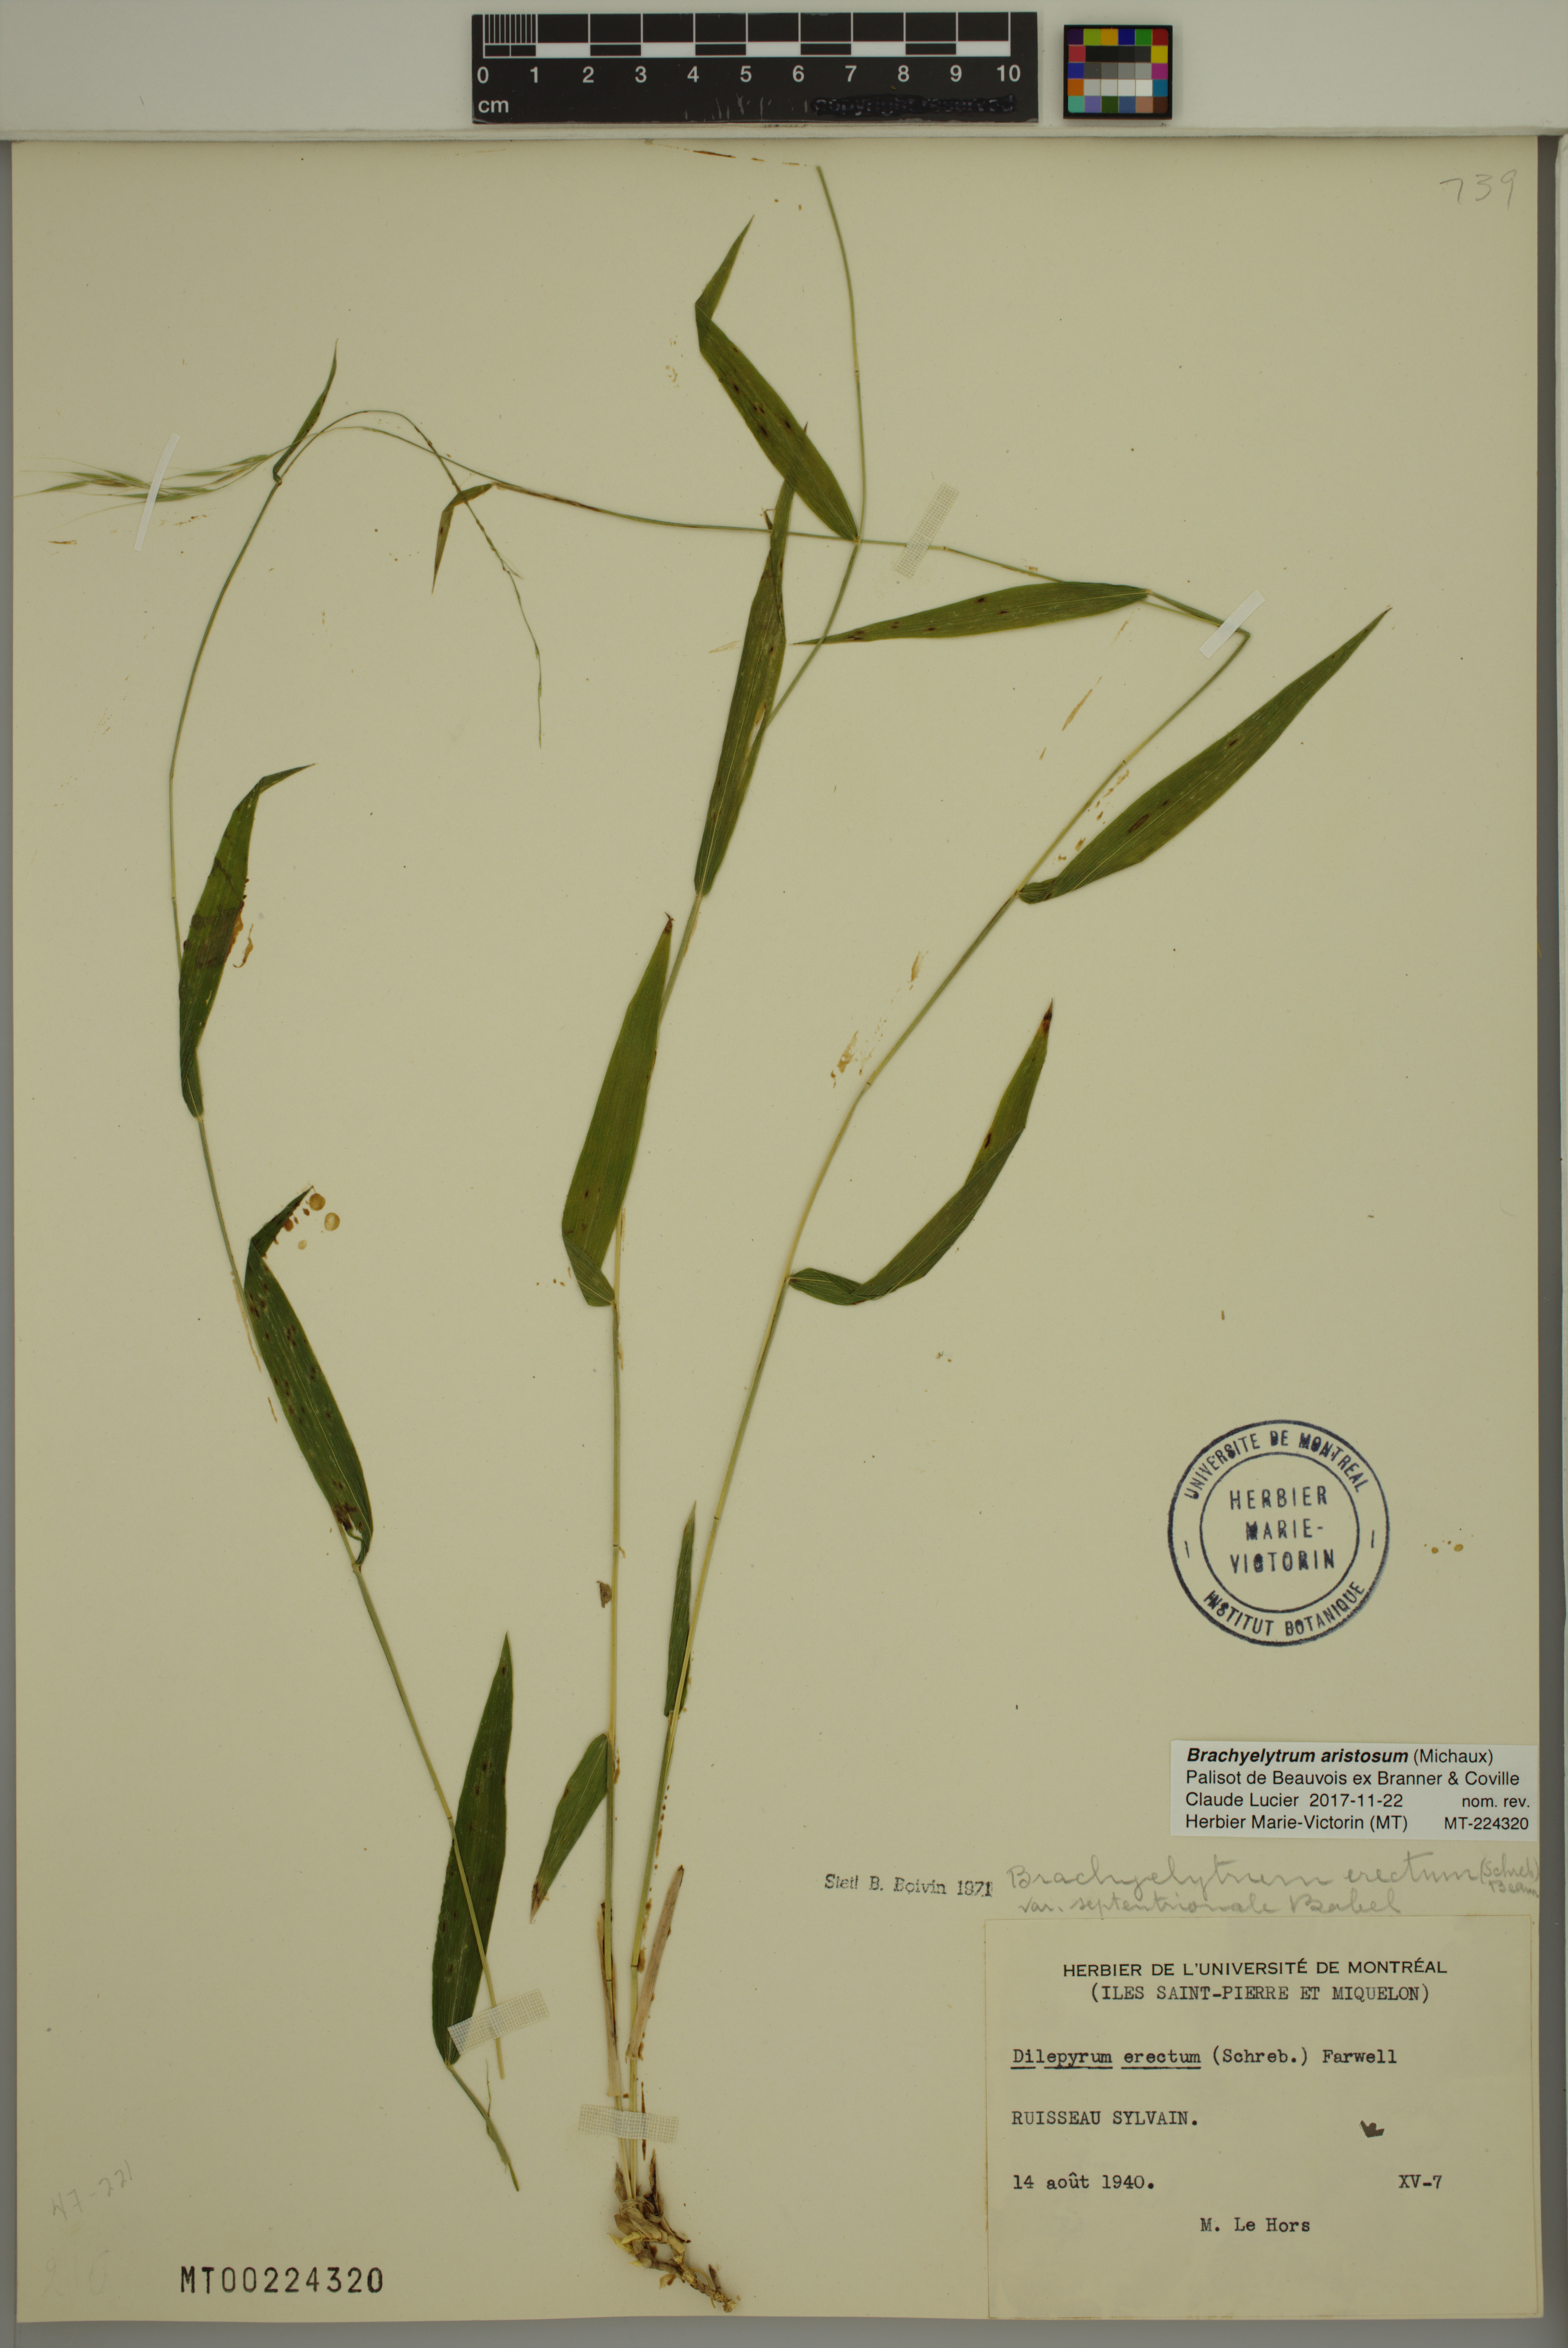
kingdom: Plantae
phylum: Tracheophyta
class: Liliopsida
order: Poales
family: Poaceae
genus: Brachyelytrum
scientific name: Brachyelytrum aristosum
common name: Northern shorthusk
